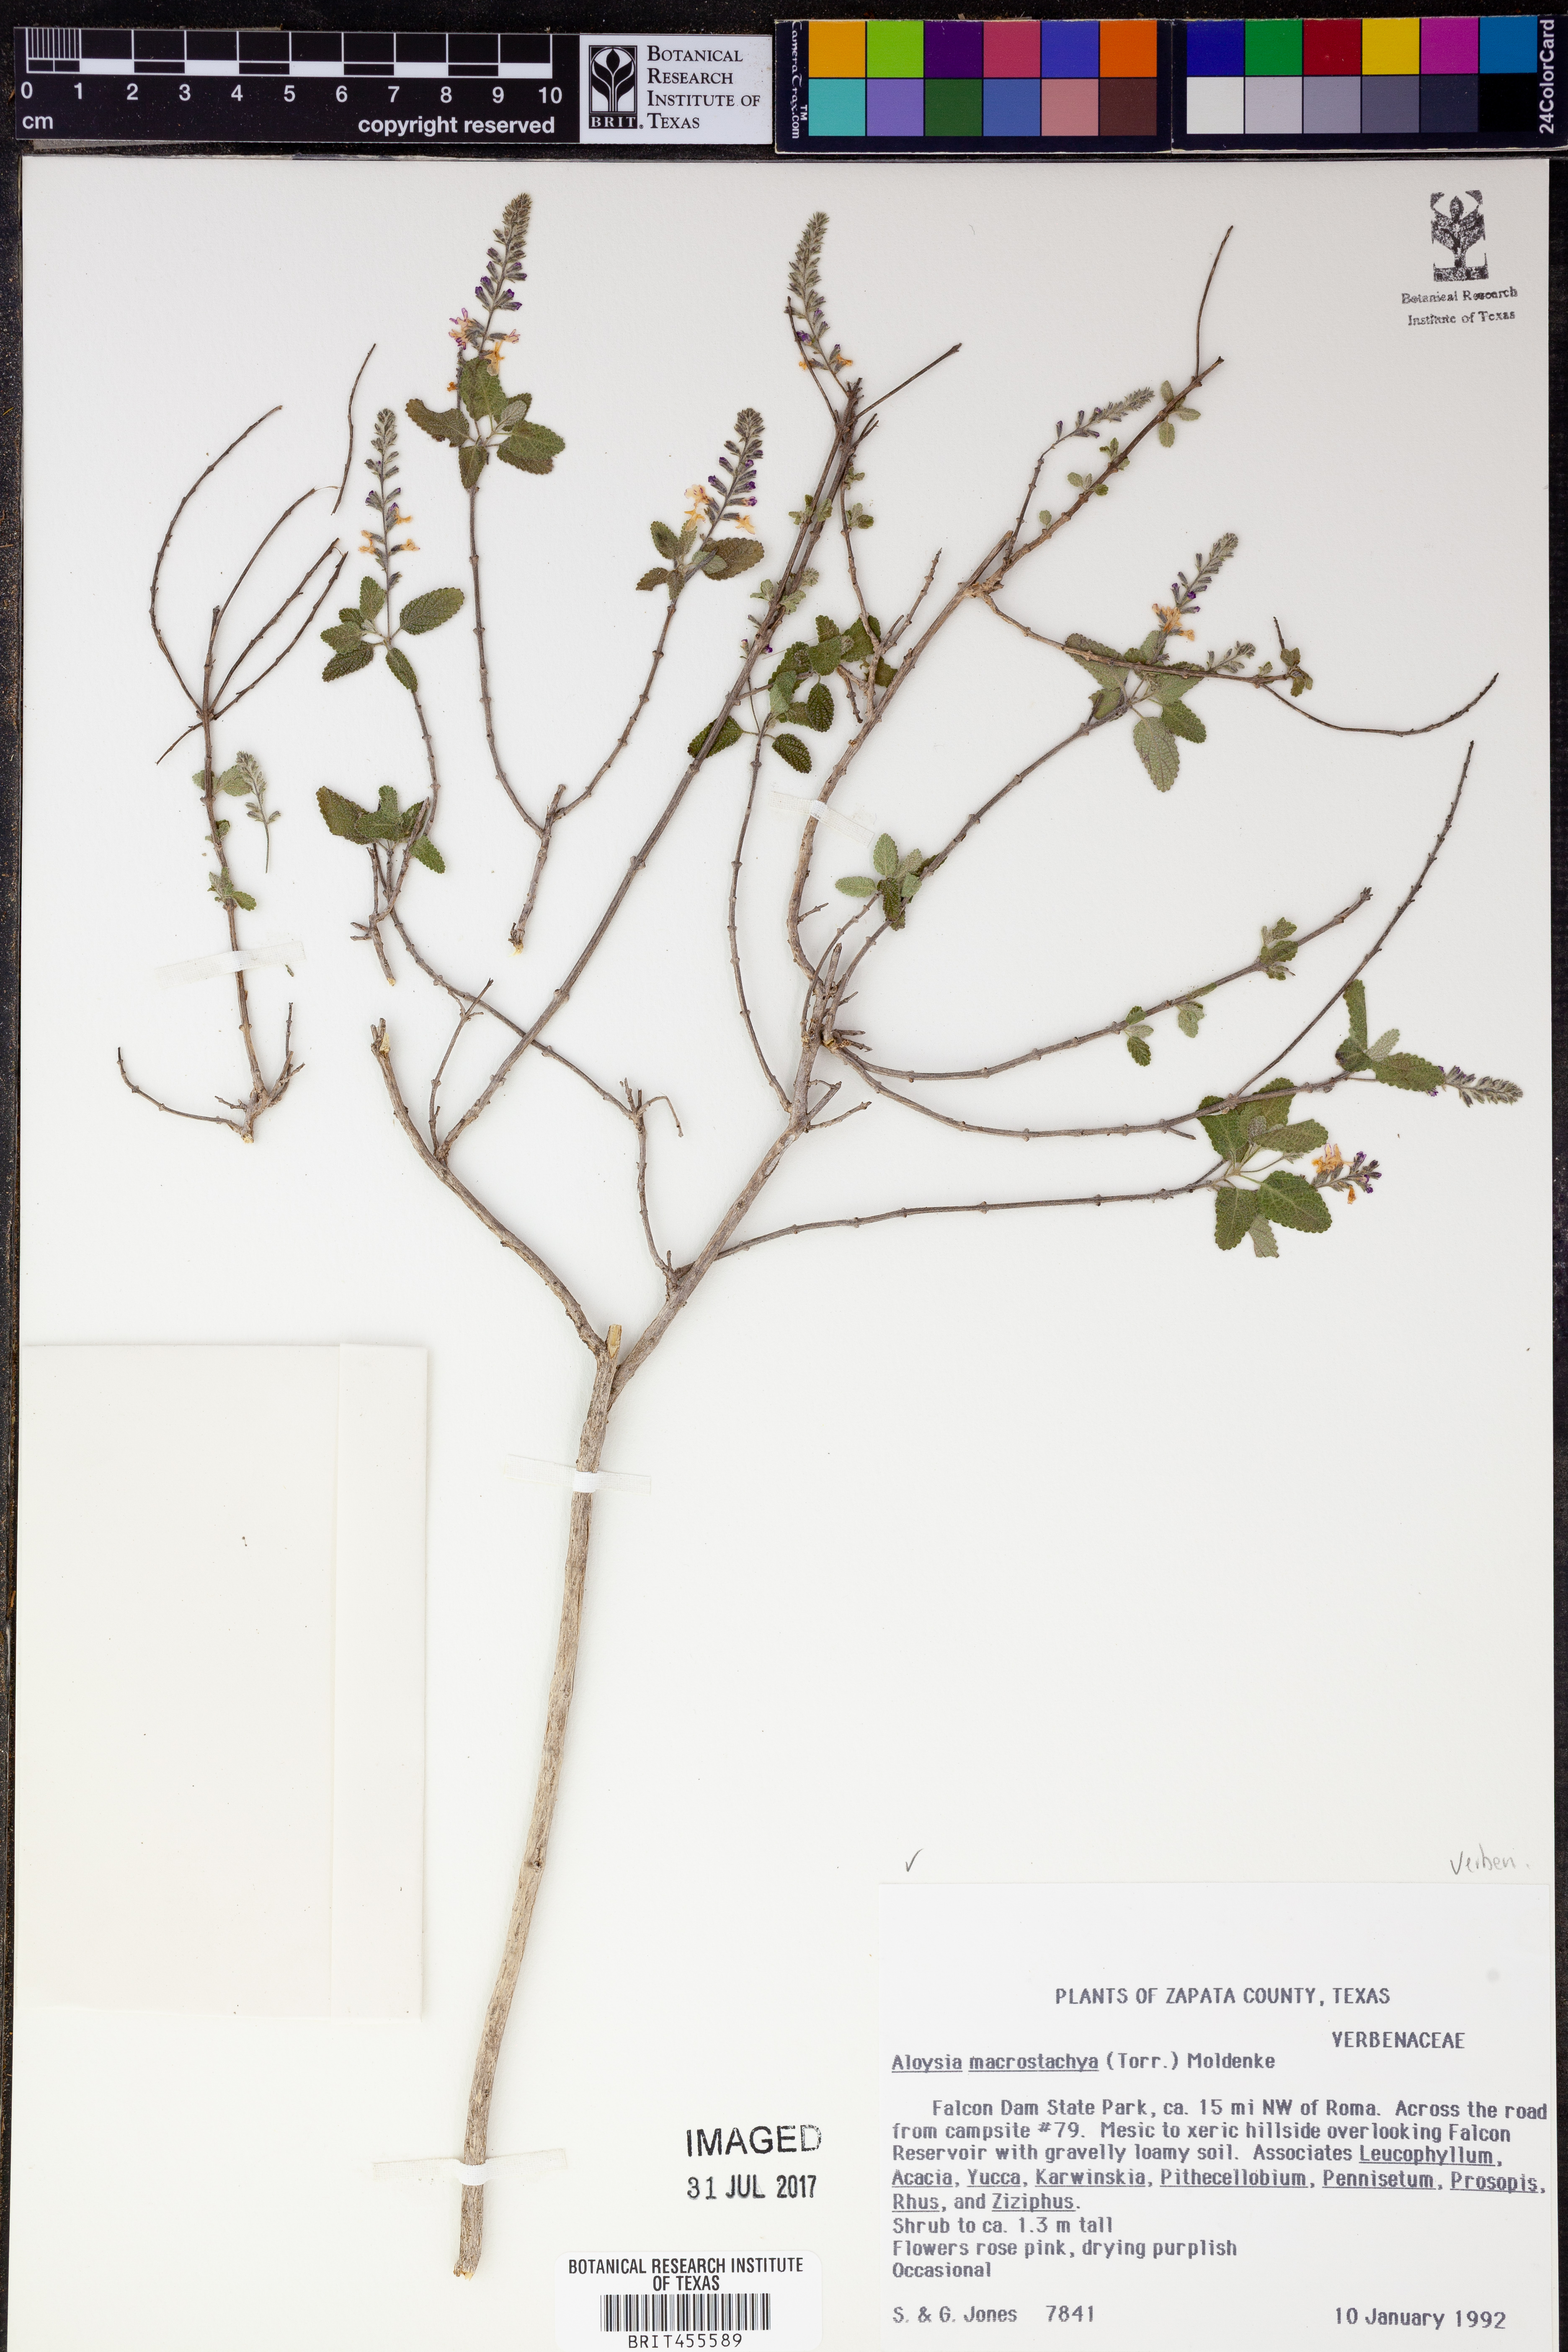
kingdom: Plantae
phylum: Tracheophyta
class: Magnoliopsida
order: Lamiales
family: Verbenaceae
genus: Aloysia
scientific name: Aloysia macrostachya
